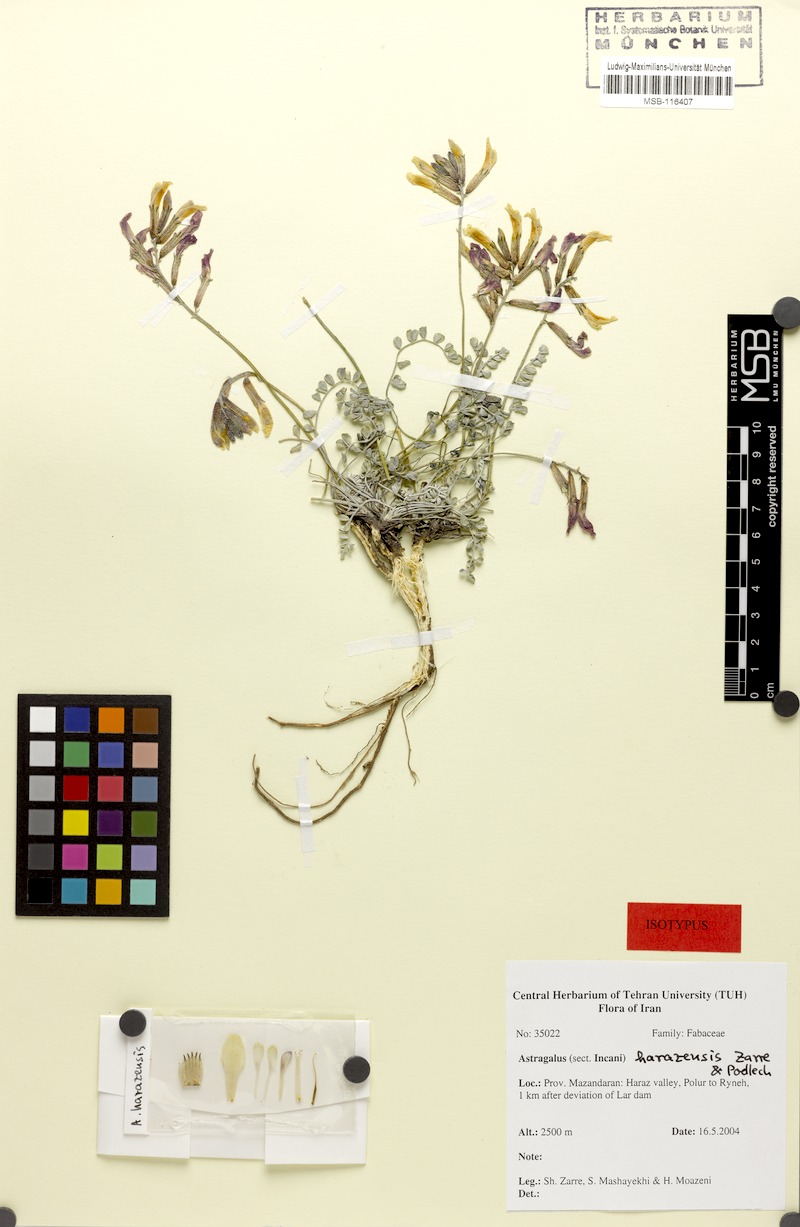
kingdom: Plantae
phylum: Tracheophyta
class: Magnoliopsida
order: Fabales
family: Fabaceae
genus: Astragalus
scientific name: Astragalus harazensis
